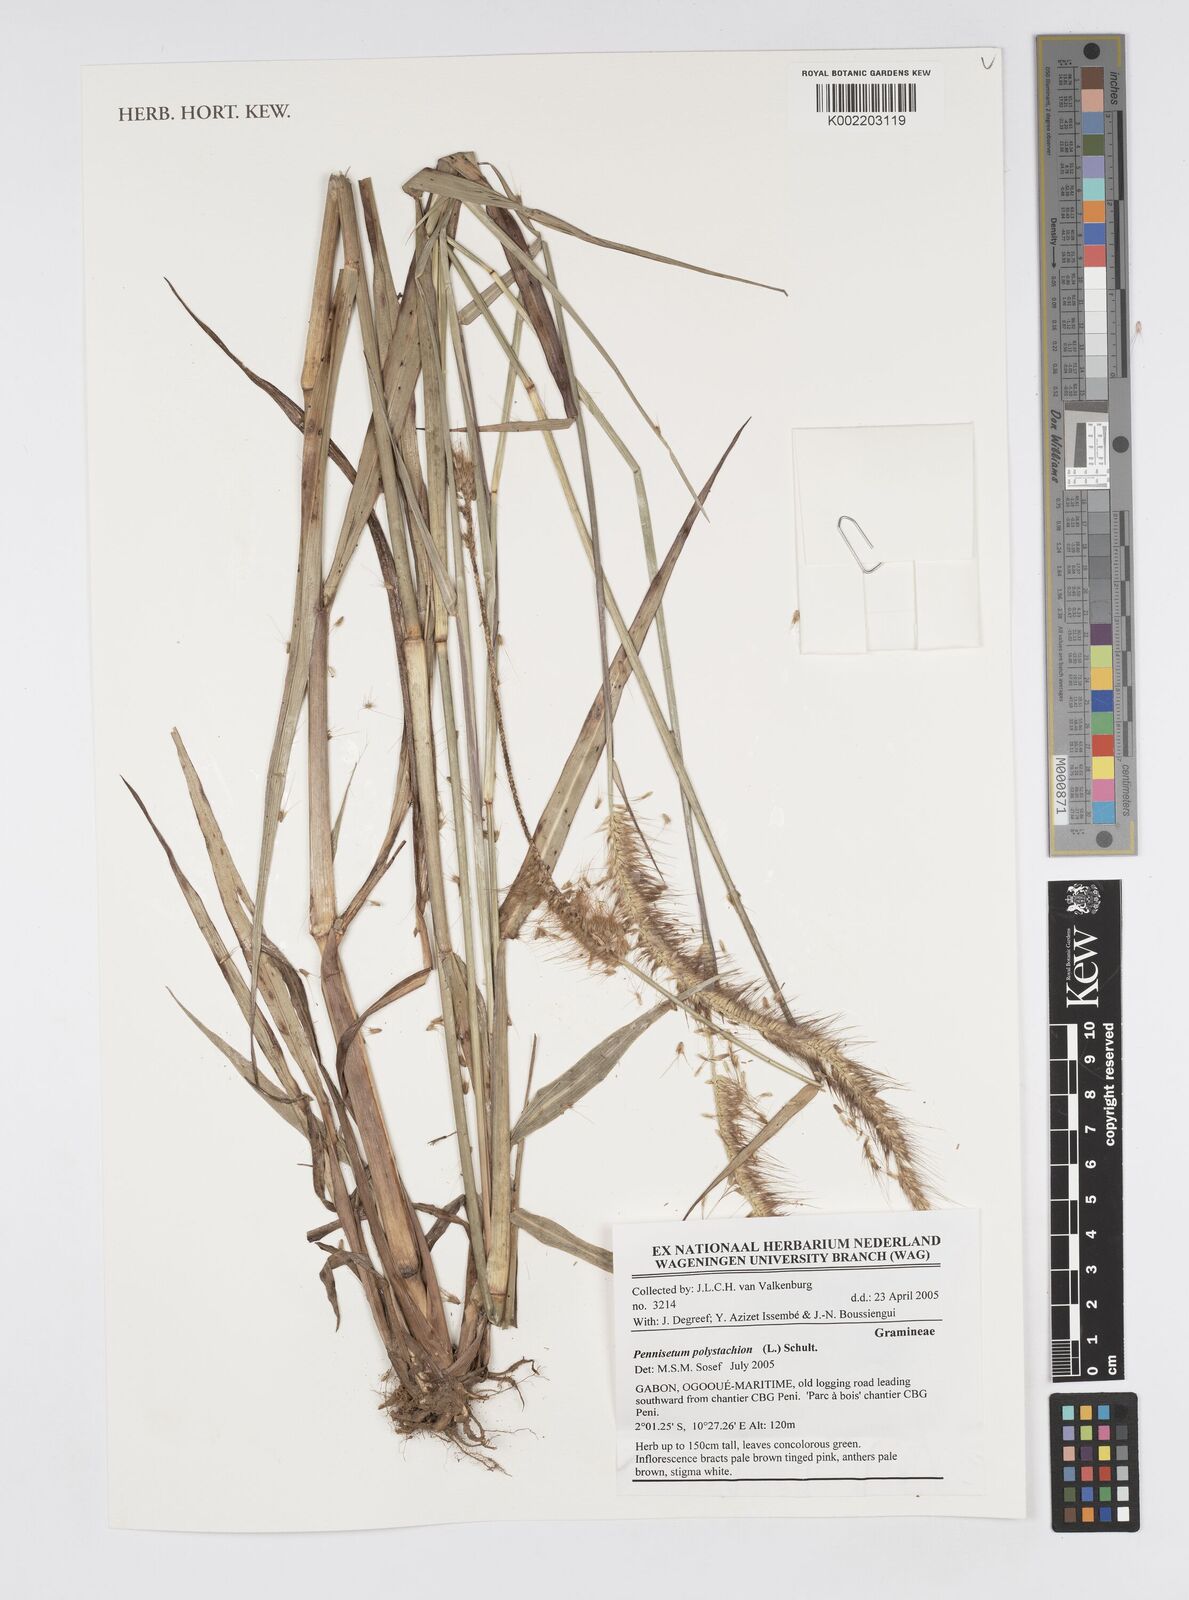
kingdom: Plantae
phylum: Tracheophyta
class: Liliopsida
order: Poales
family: Poaceae
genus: Setaria
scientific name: Setaria parviflora
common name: Knotroot bristle-grass
